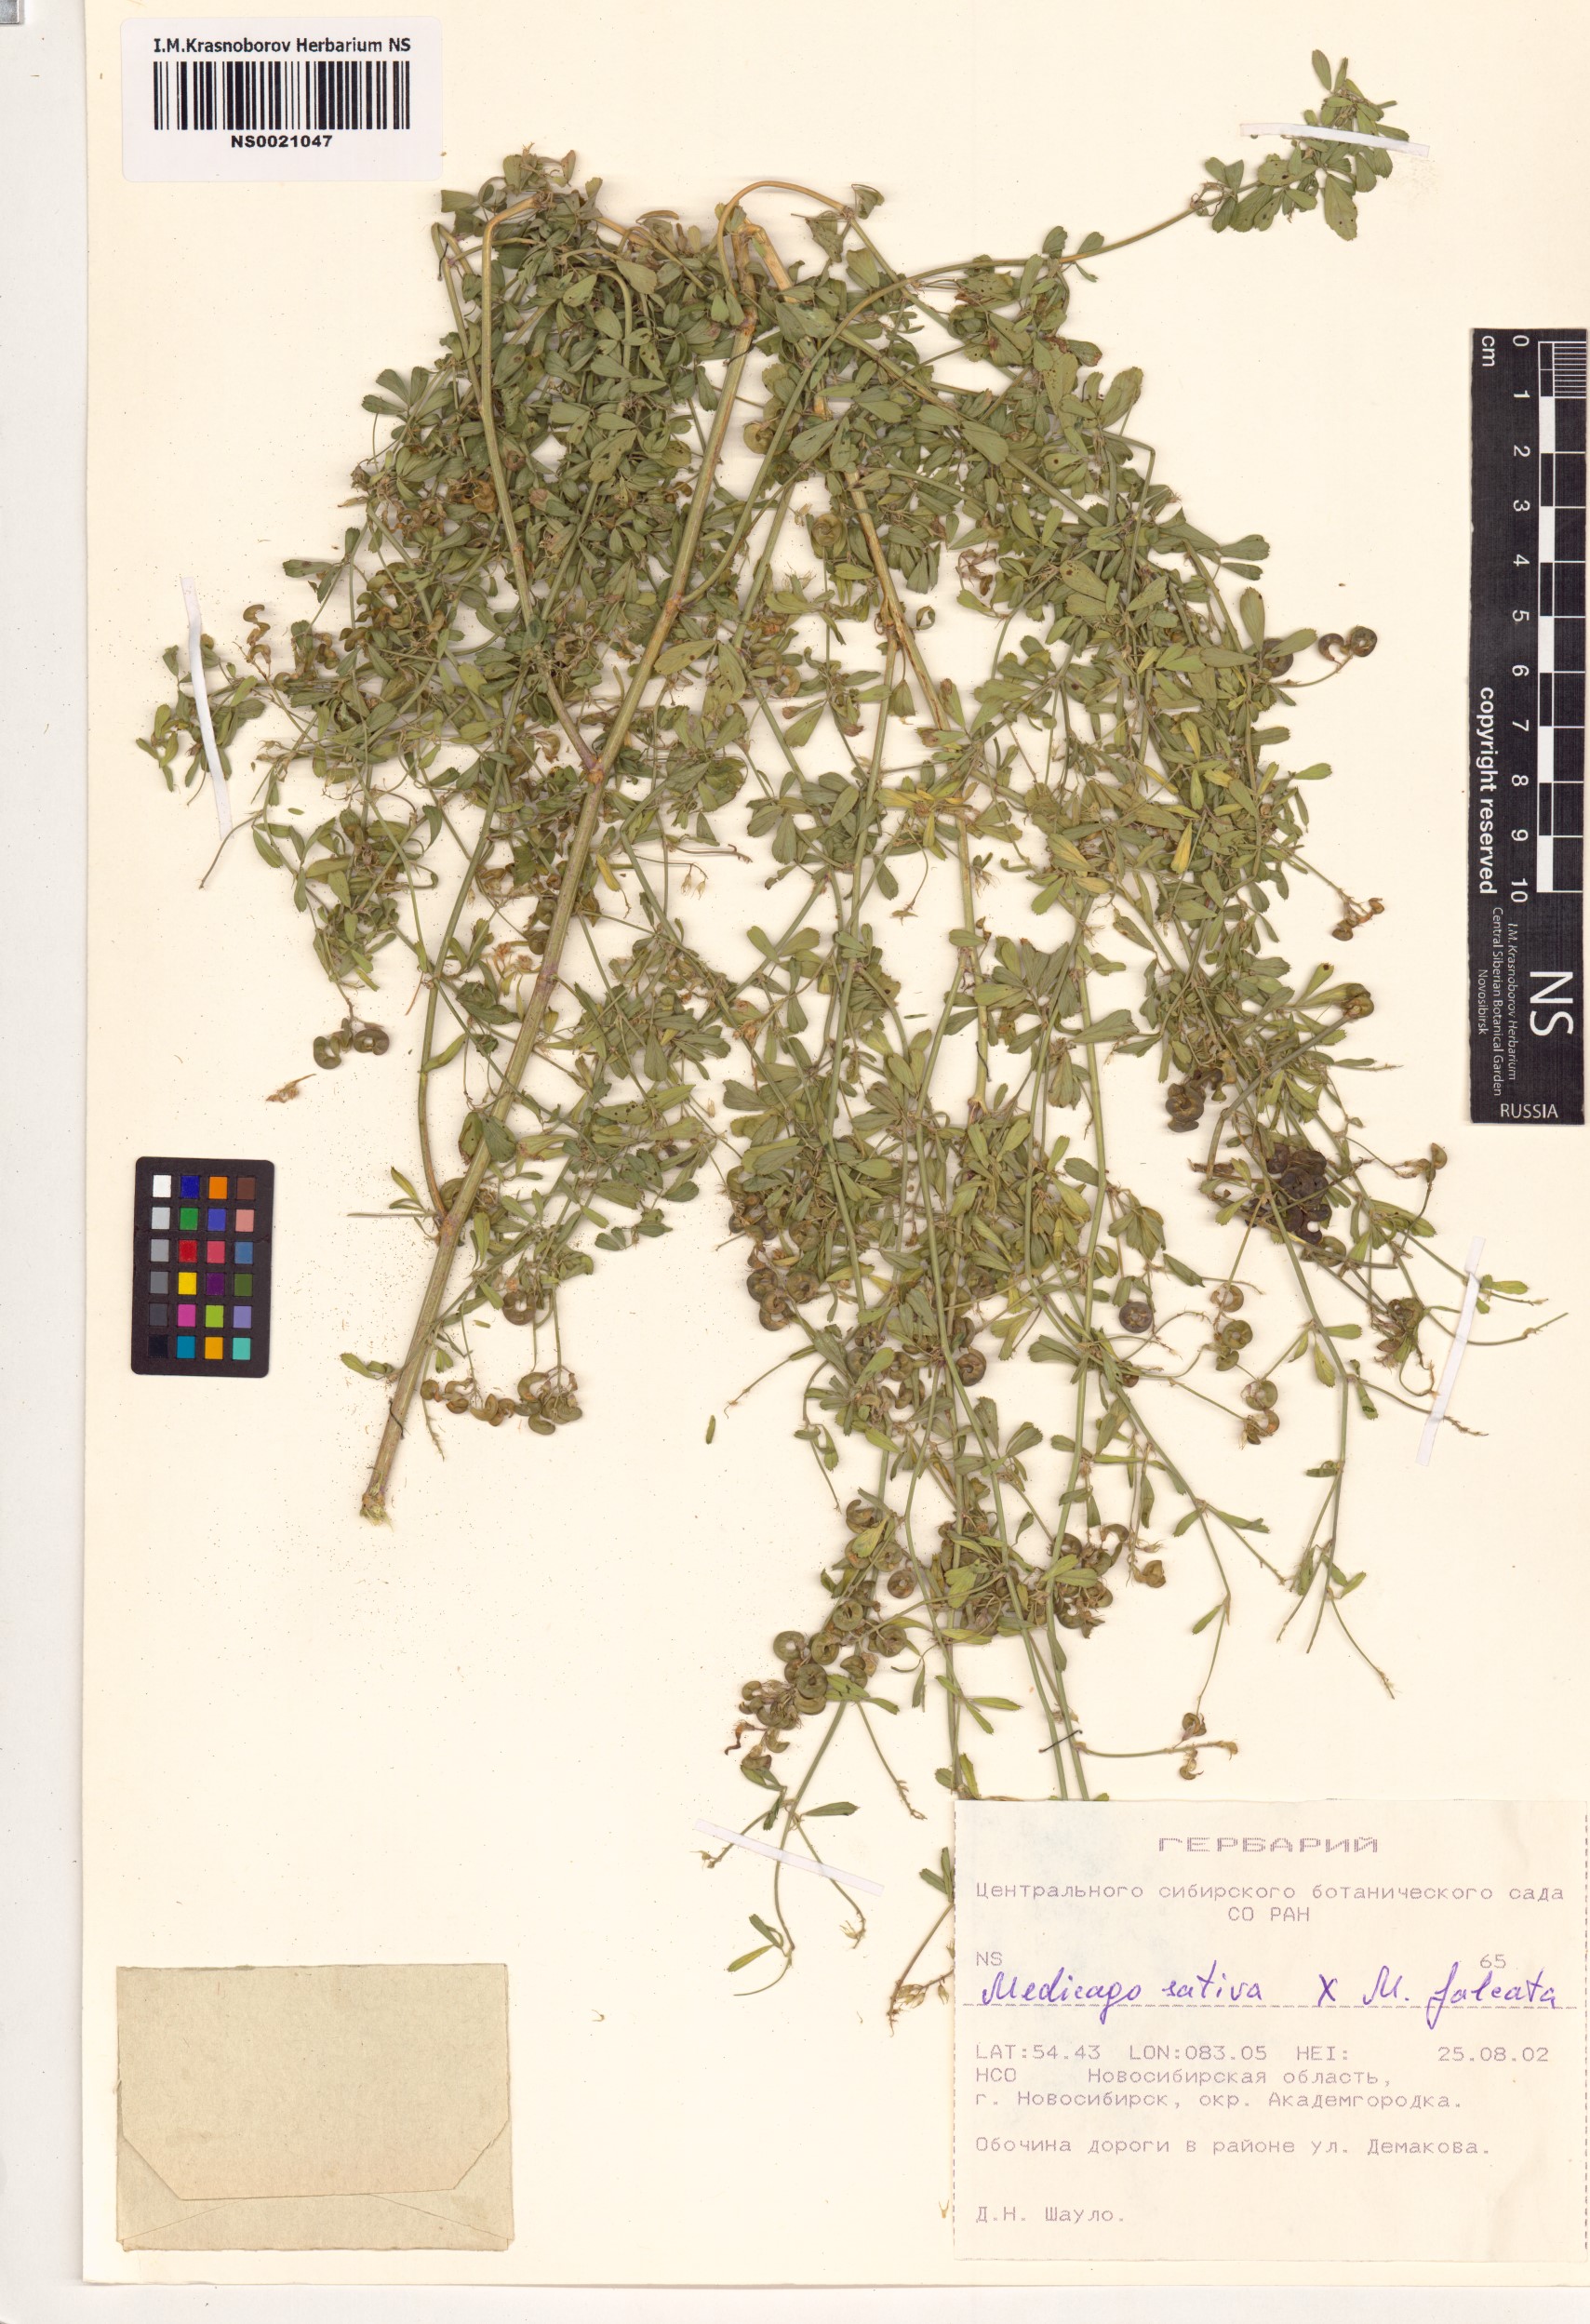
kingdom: Plantae
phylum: Tracheophyta
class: Magnoliopsida
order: Fabales
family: Fabaceae
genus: Medicago
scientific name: Medicago
